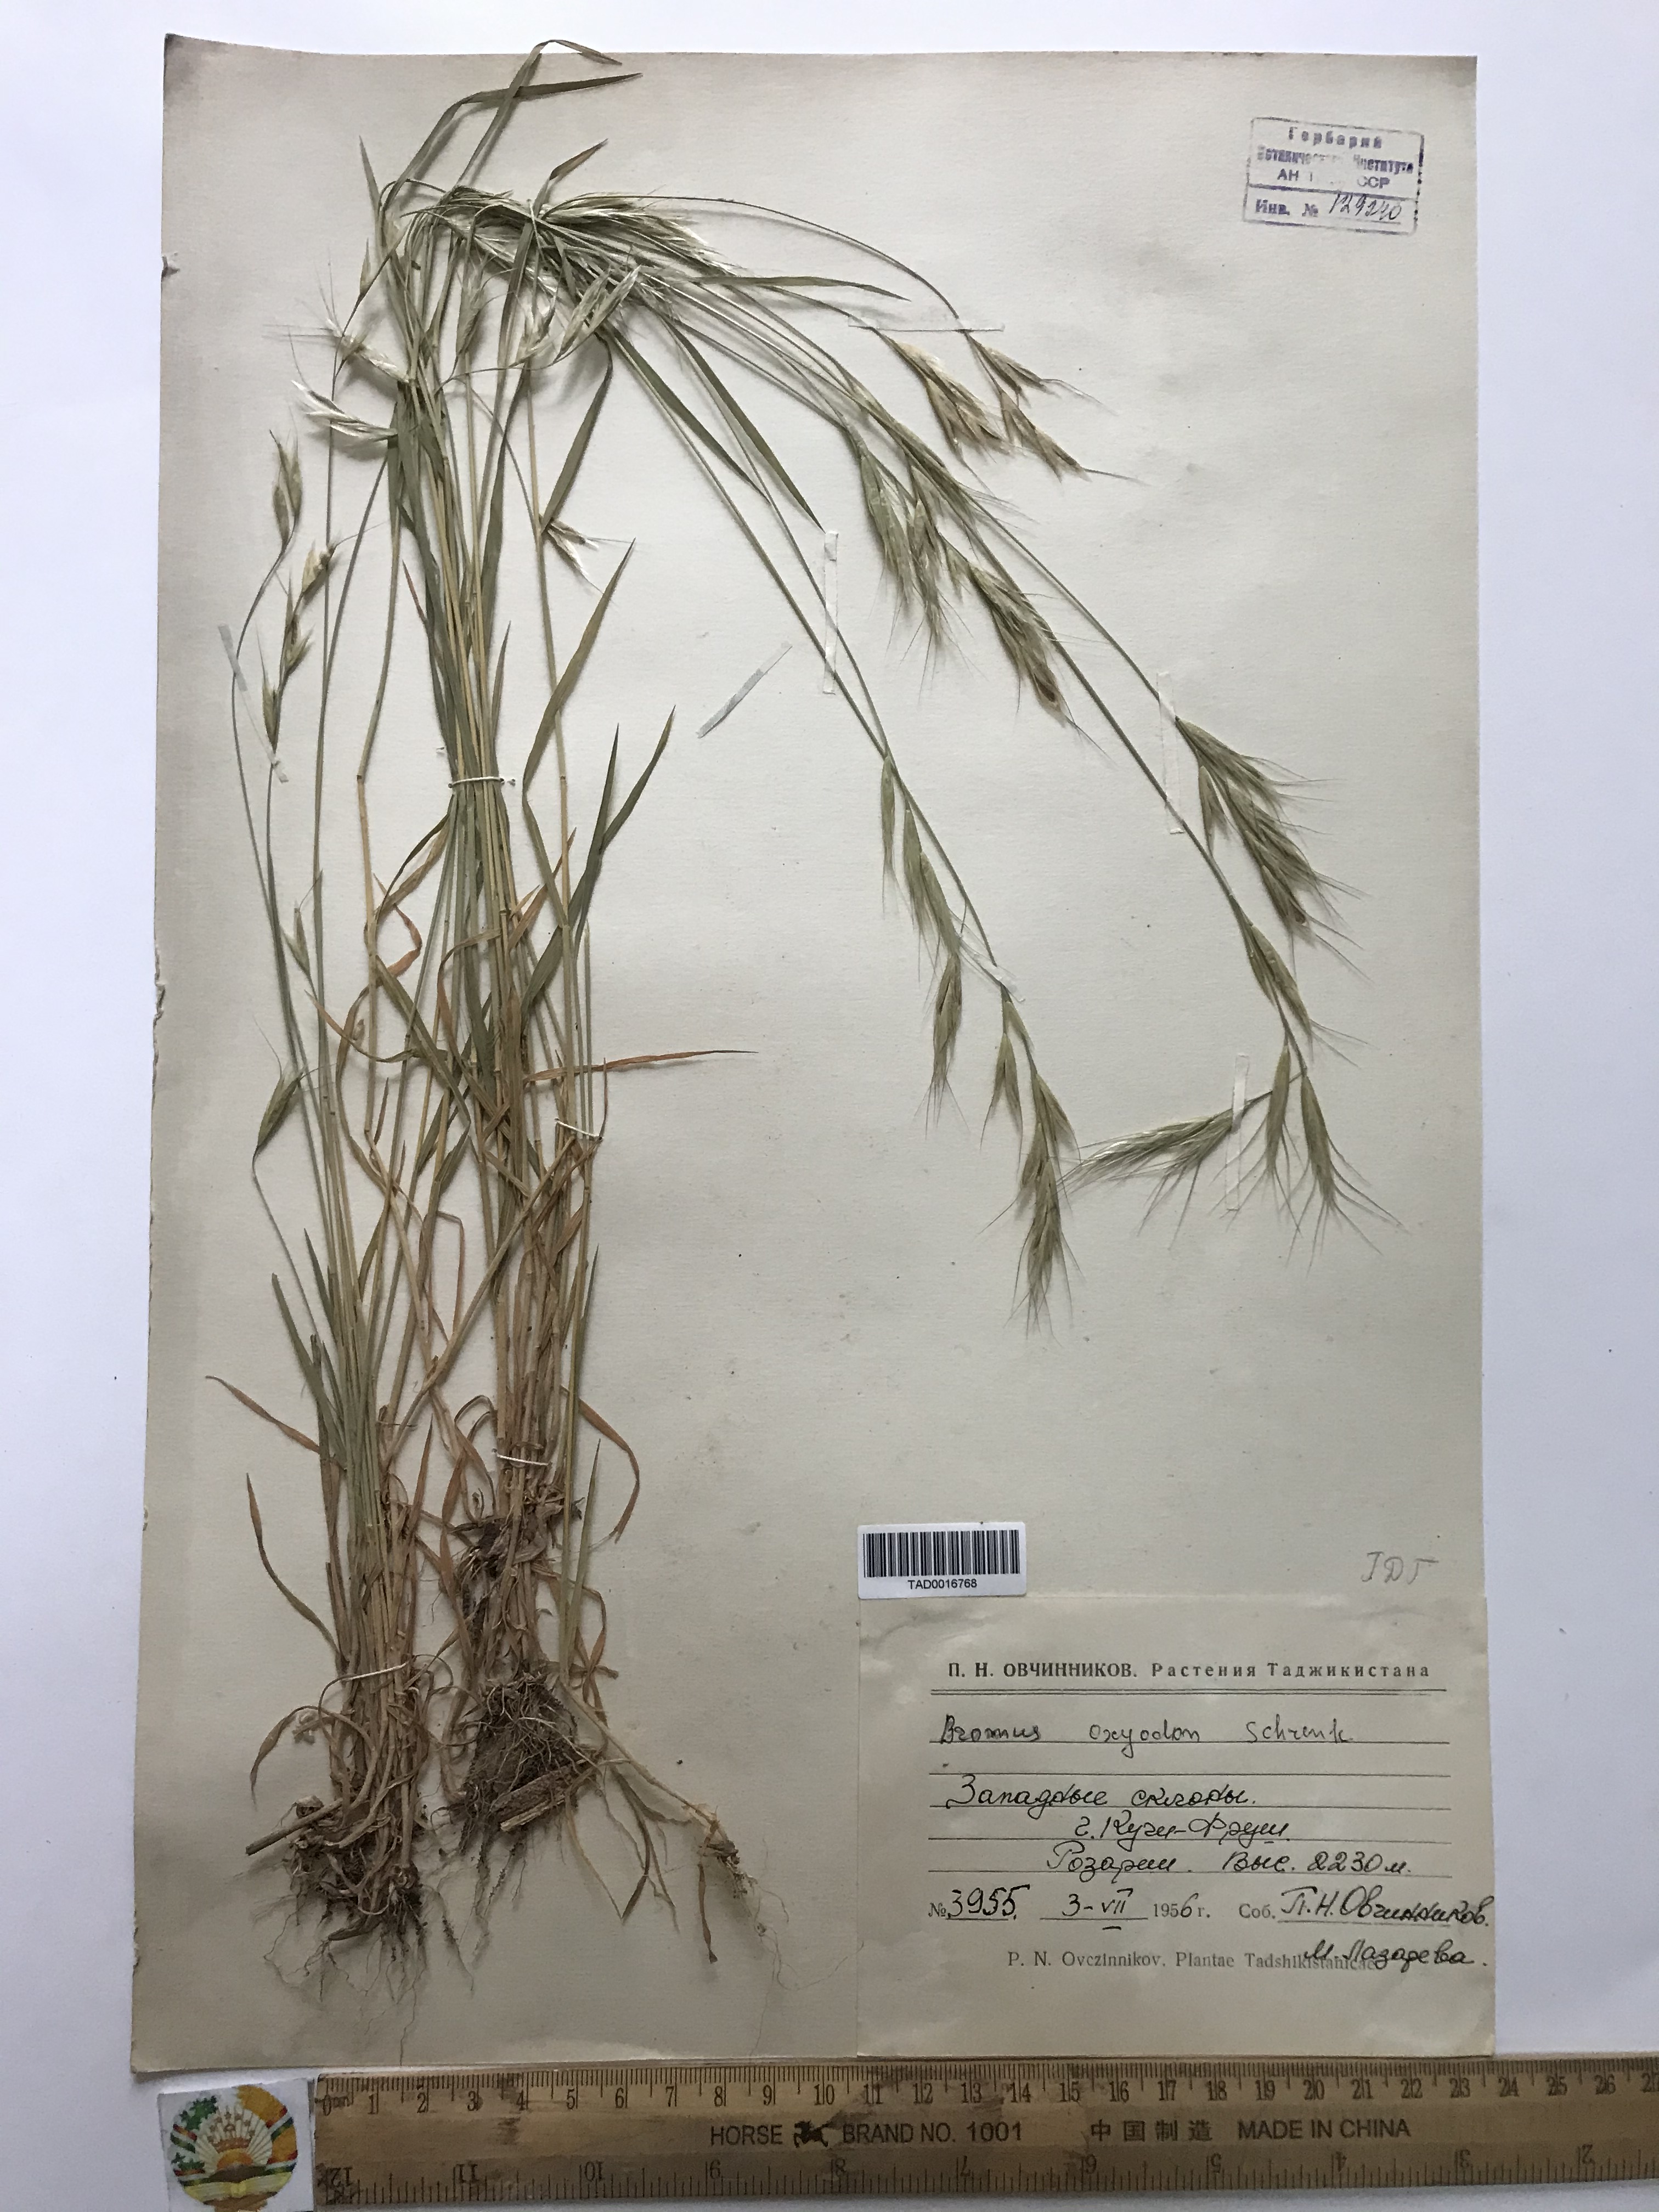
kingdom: Plantae
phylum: Tracheophyta
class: Liliopsida
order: Poales
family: Poaceae
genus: Bromus
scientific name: Bromus oxyodon
